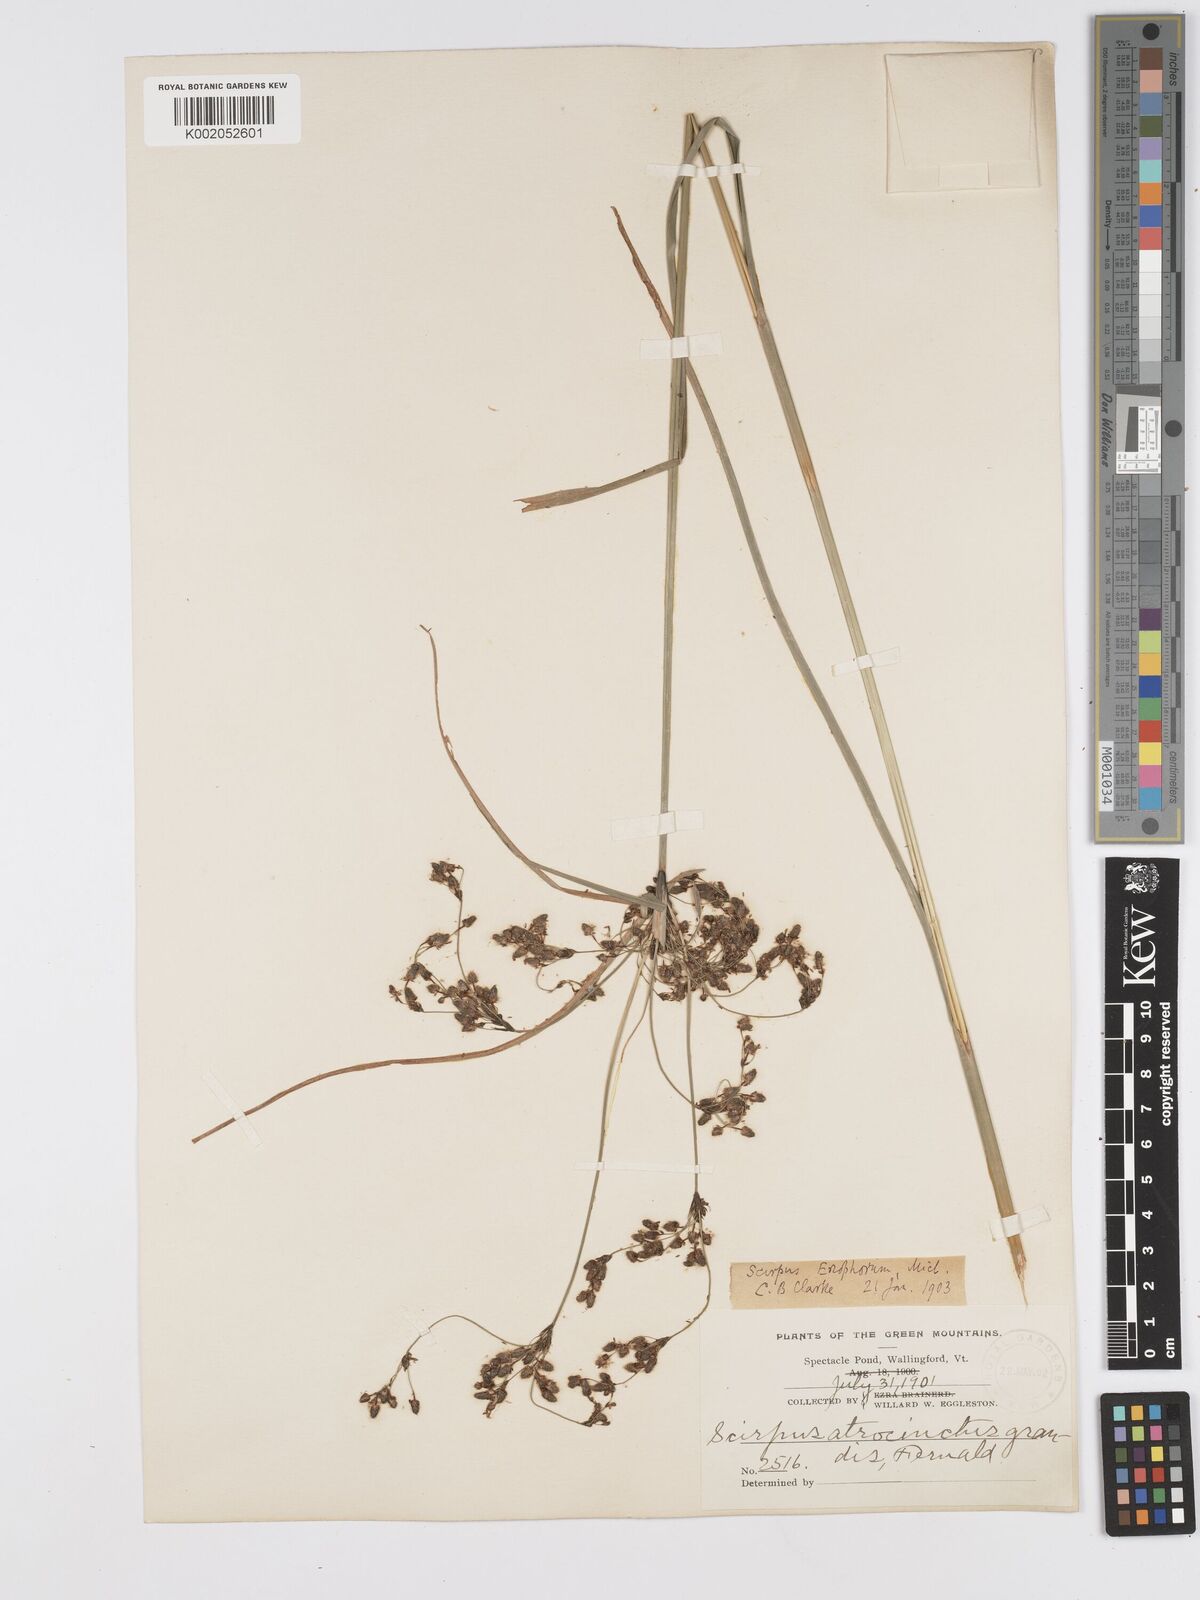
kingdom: Plantae
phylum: Tracheophyta
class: Liliopsida
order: Poales
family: Cyperaceae
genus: Scirpus
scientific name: Scirpus atrocinctus
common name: Black-girdled bulrush
